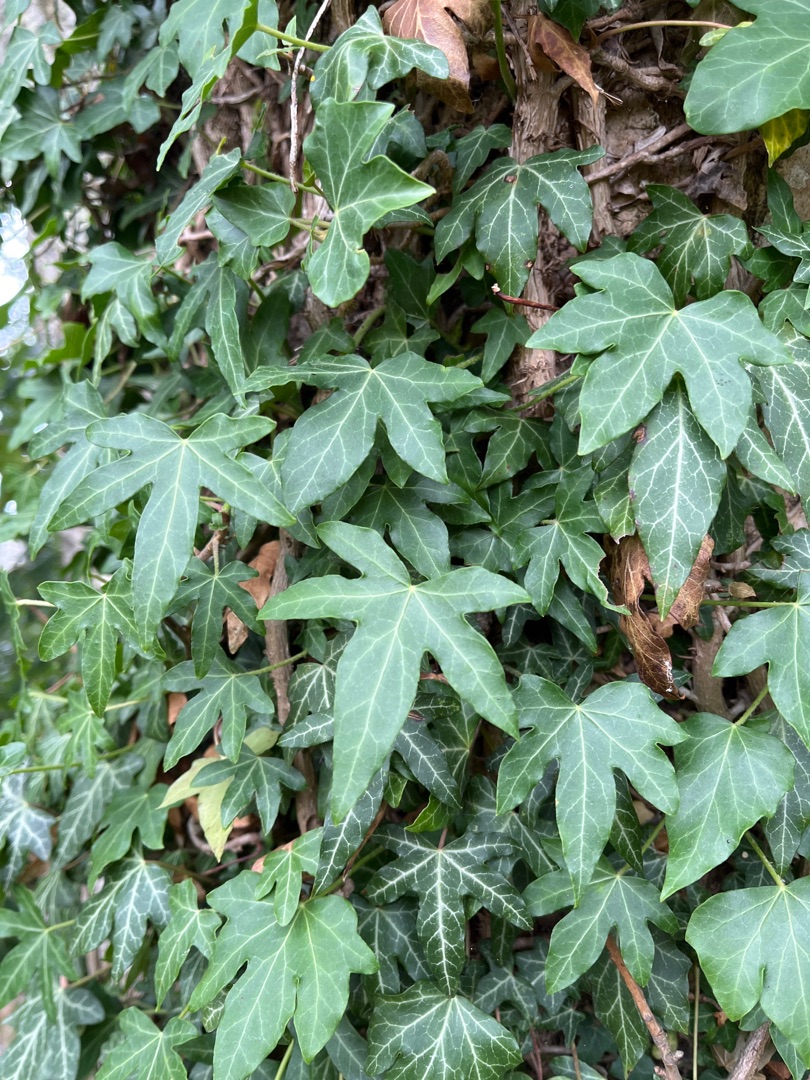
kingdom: Plantae
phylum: Tracheophyta
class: Magnoliopsida
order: Apiales
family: Araliaceae
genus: Hedera
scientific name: Hedera helix
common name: Vedbend
